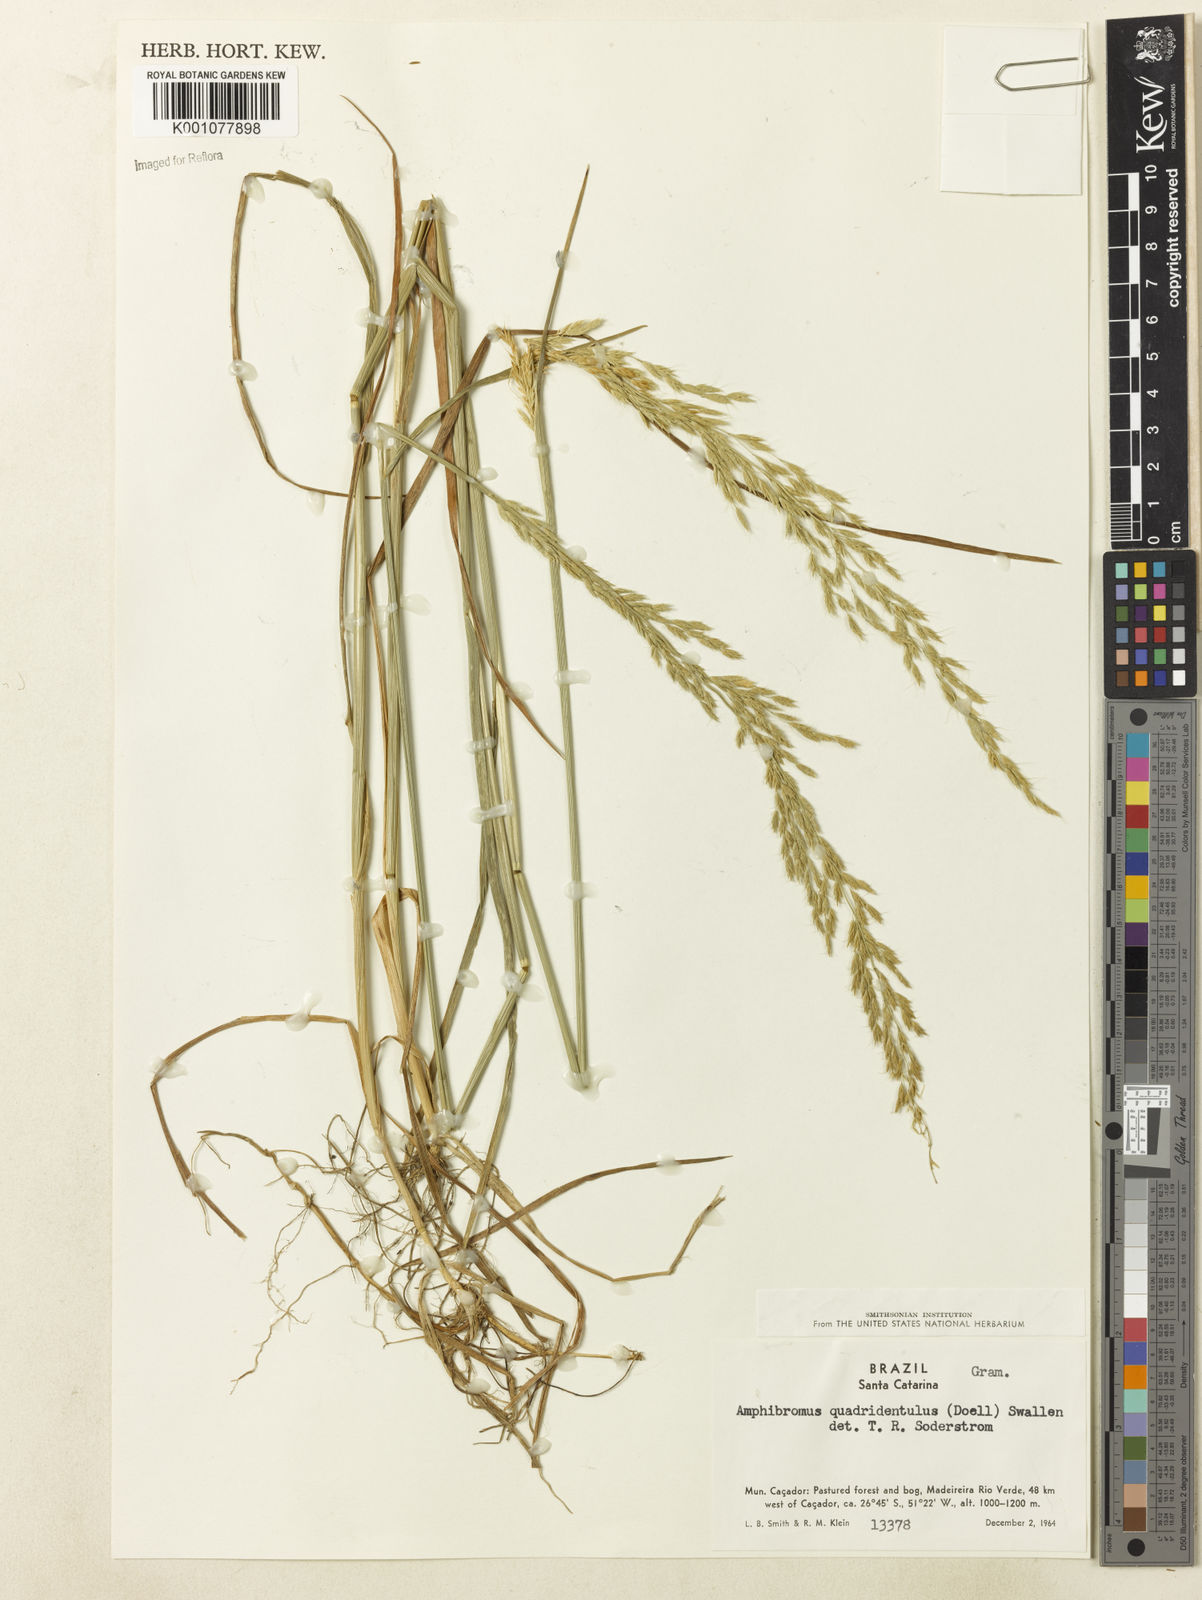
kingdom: Plantae
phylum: Tracheophyta
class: Liliopsida
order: Poales
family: Poaceae
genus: Helictotrichon
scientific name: Helictotrichon
